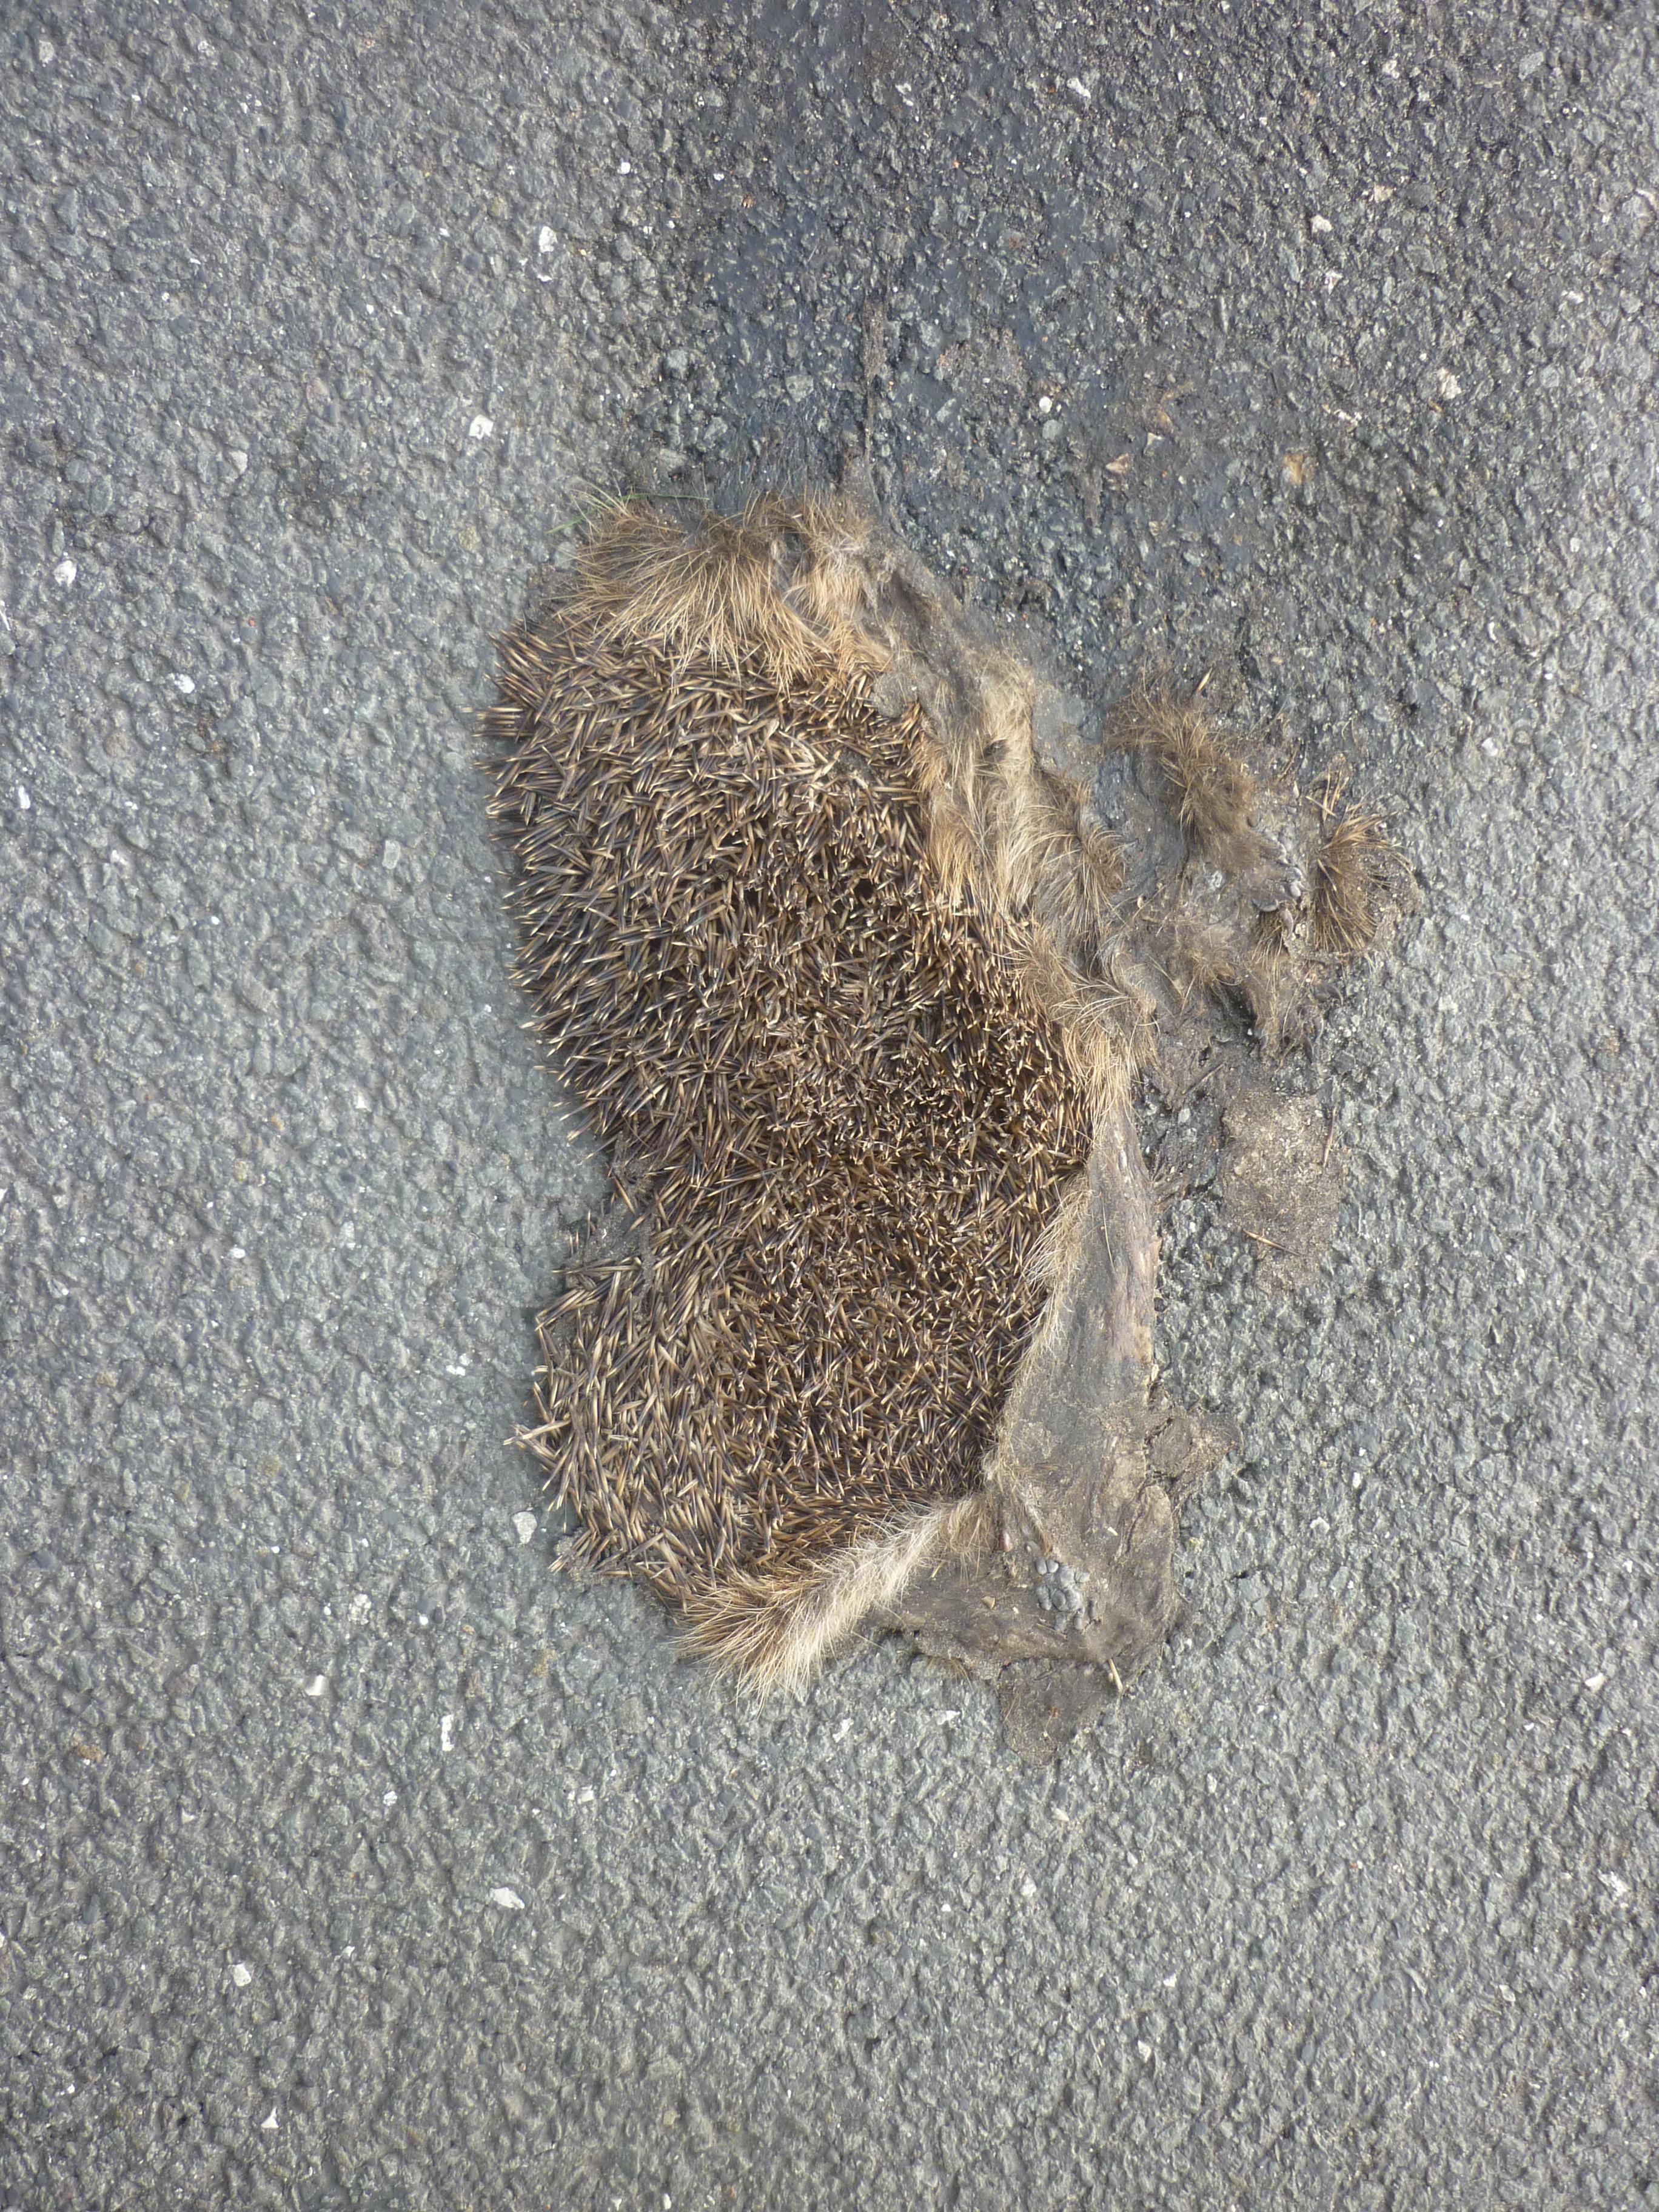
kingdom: Animalia
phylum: Chordata
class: Mammalia
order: Erinaceomorpha
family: Erinaceidae
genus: Erinaceus
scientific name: Erinaceus
